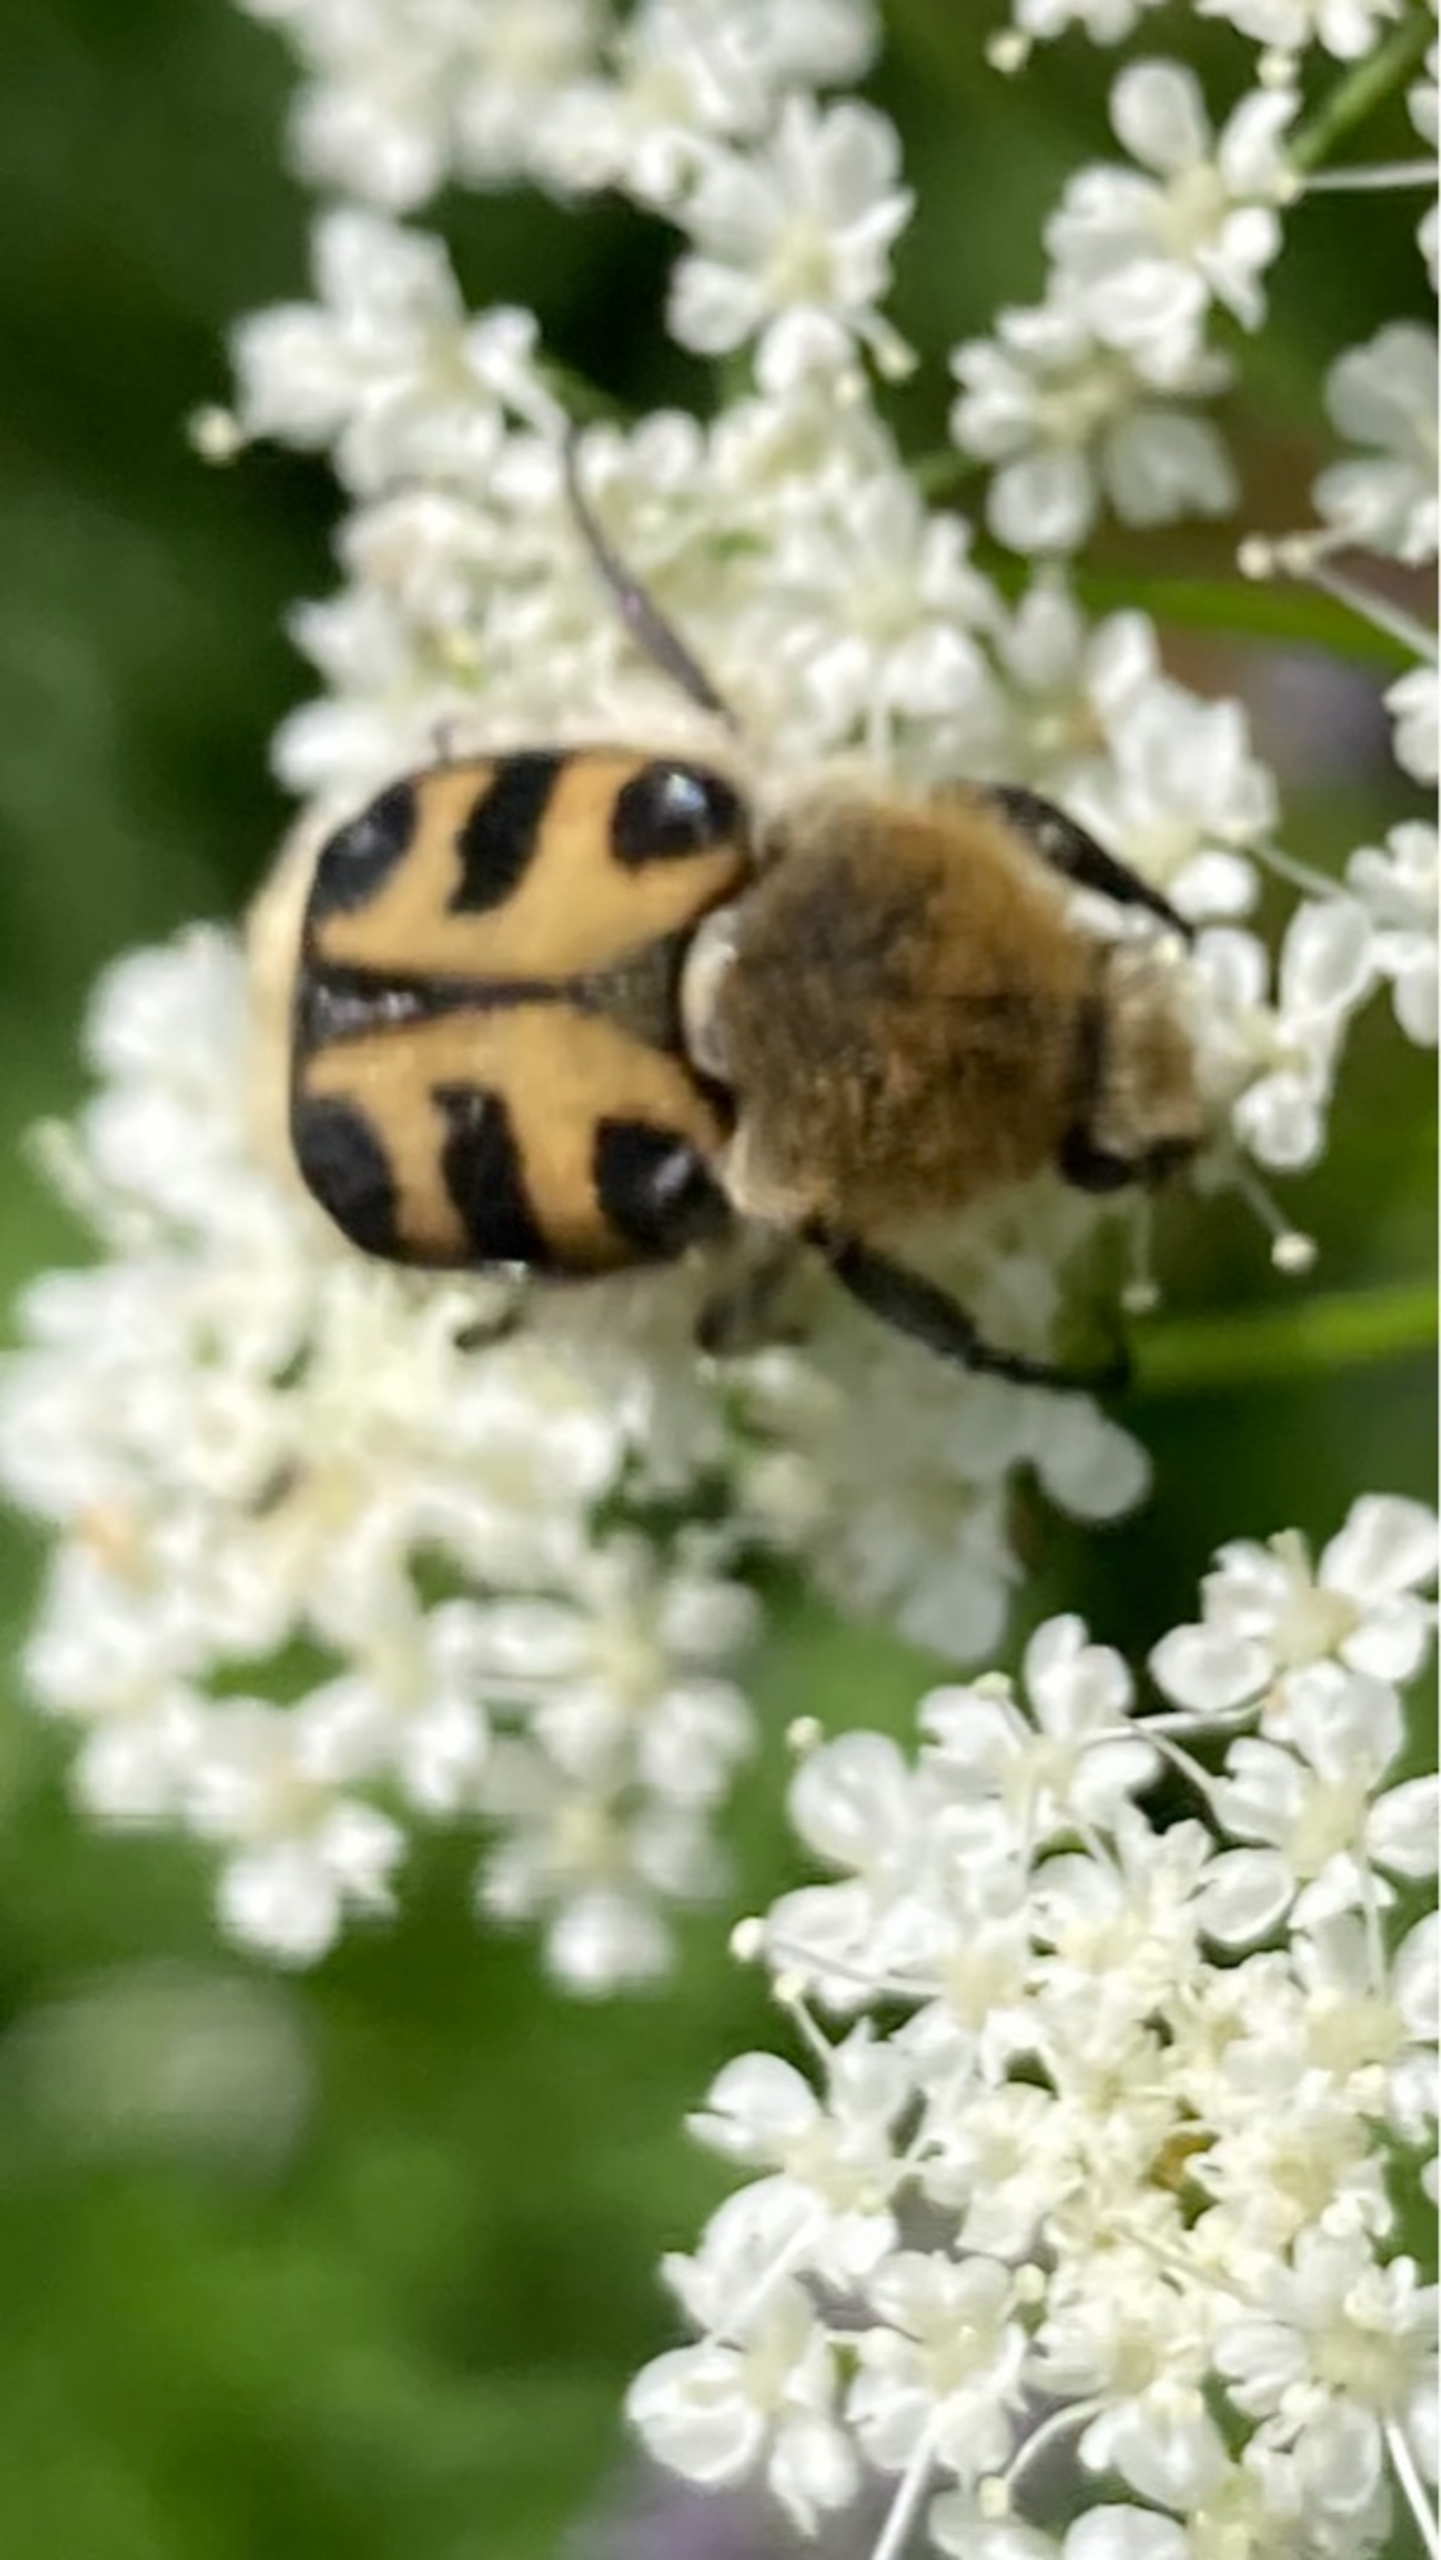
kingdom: Animalia
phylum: Arthropoda
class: Insecta
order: Coleoptera
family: Scarabaeidae
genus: Trichius
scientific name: Trichius gallicus
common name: Lille humlebille
